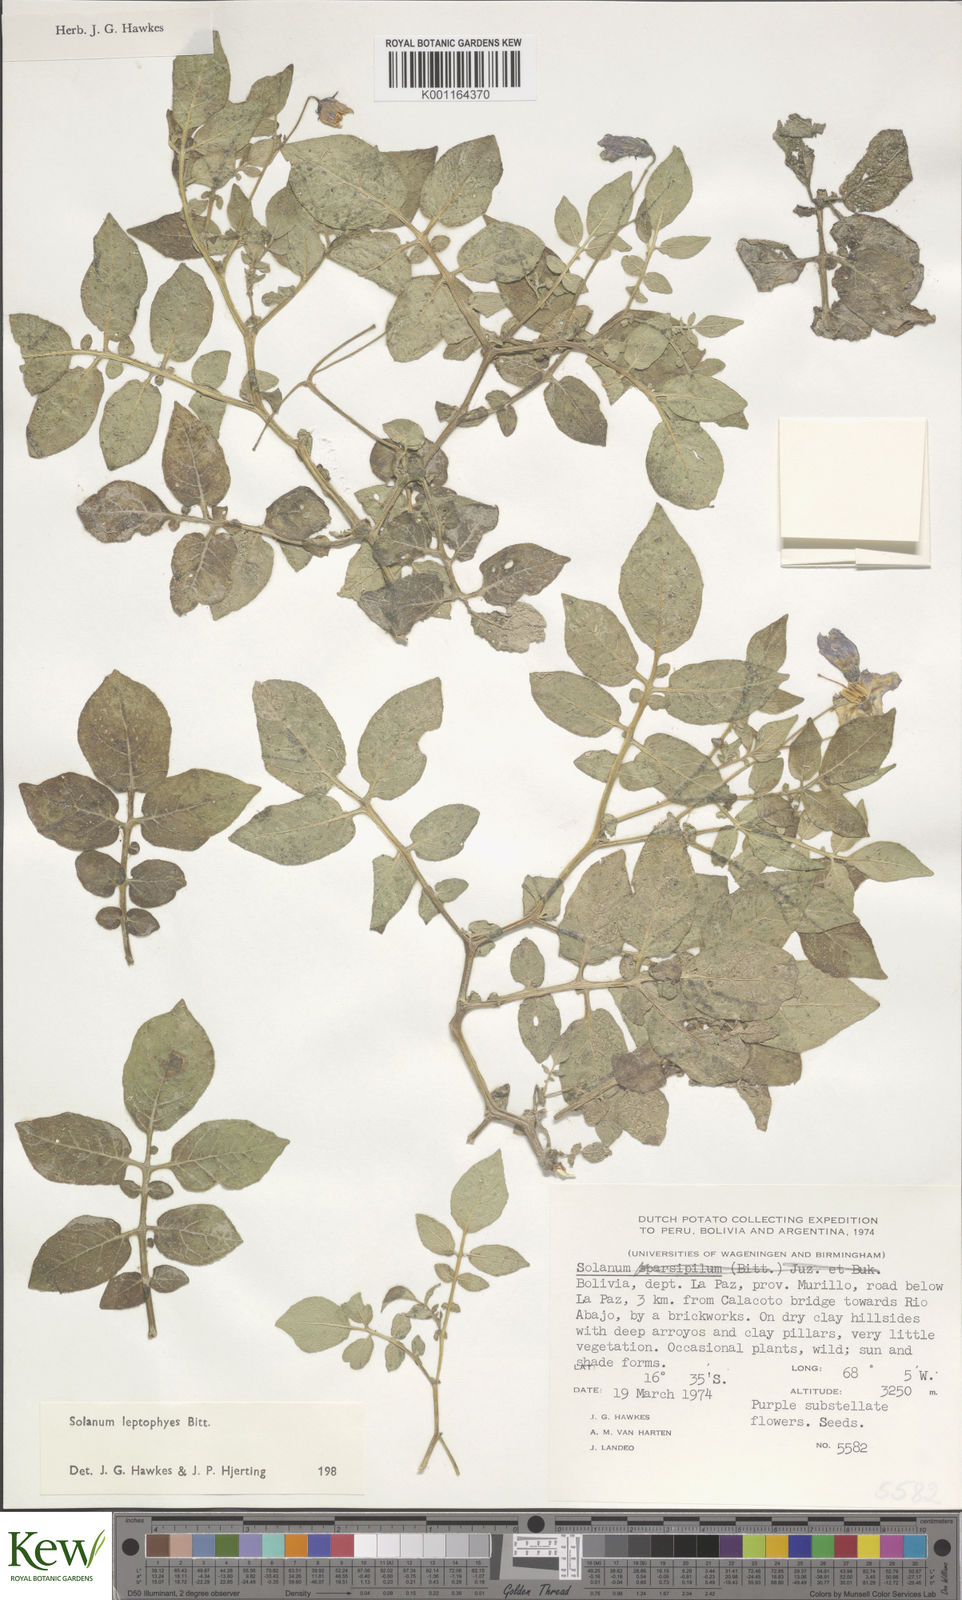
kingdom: Plantae
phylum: Tracheophyta
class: Magnoliopsida
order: Solanales
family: Solanaceae
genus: Solanum
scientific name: Solanum brevicaule
